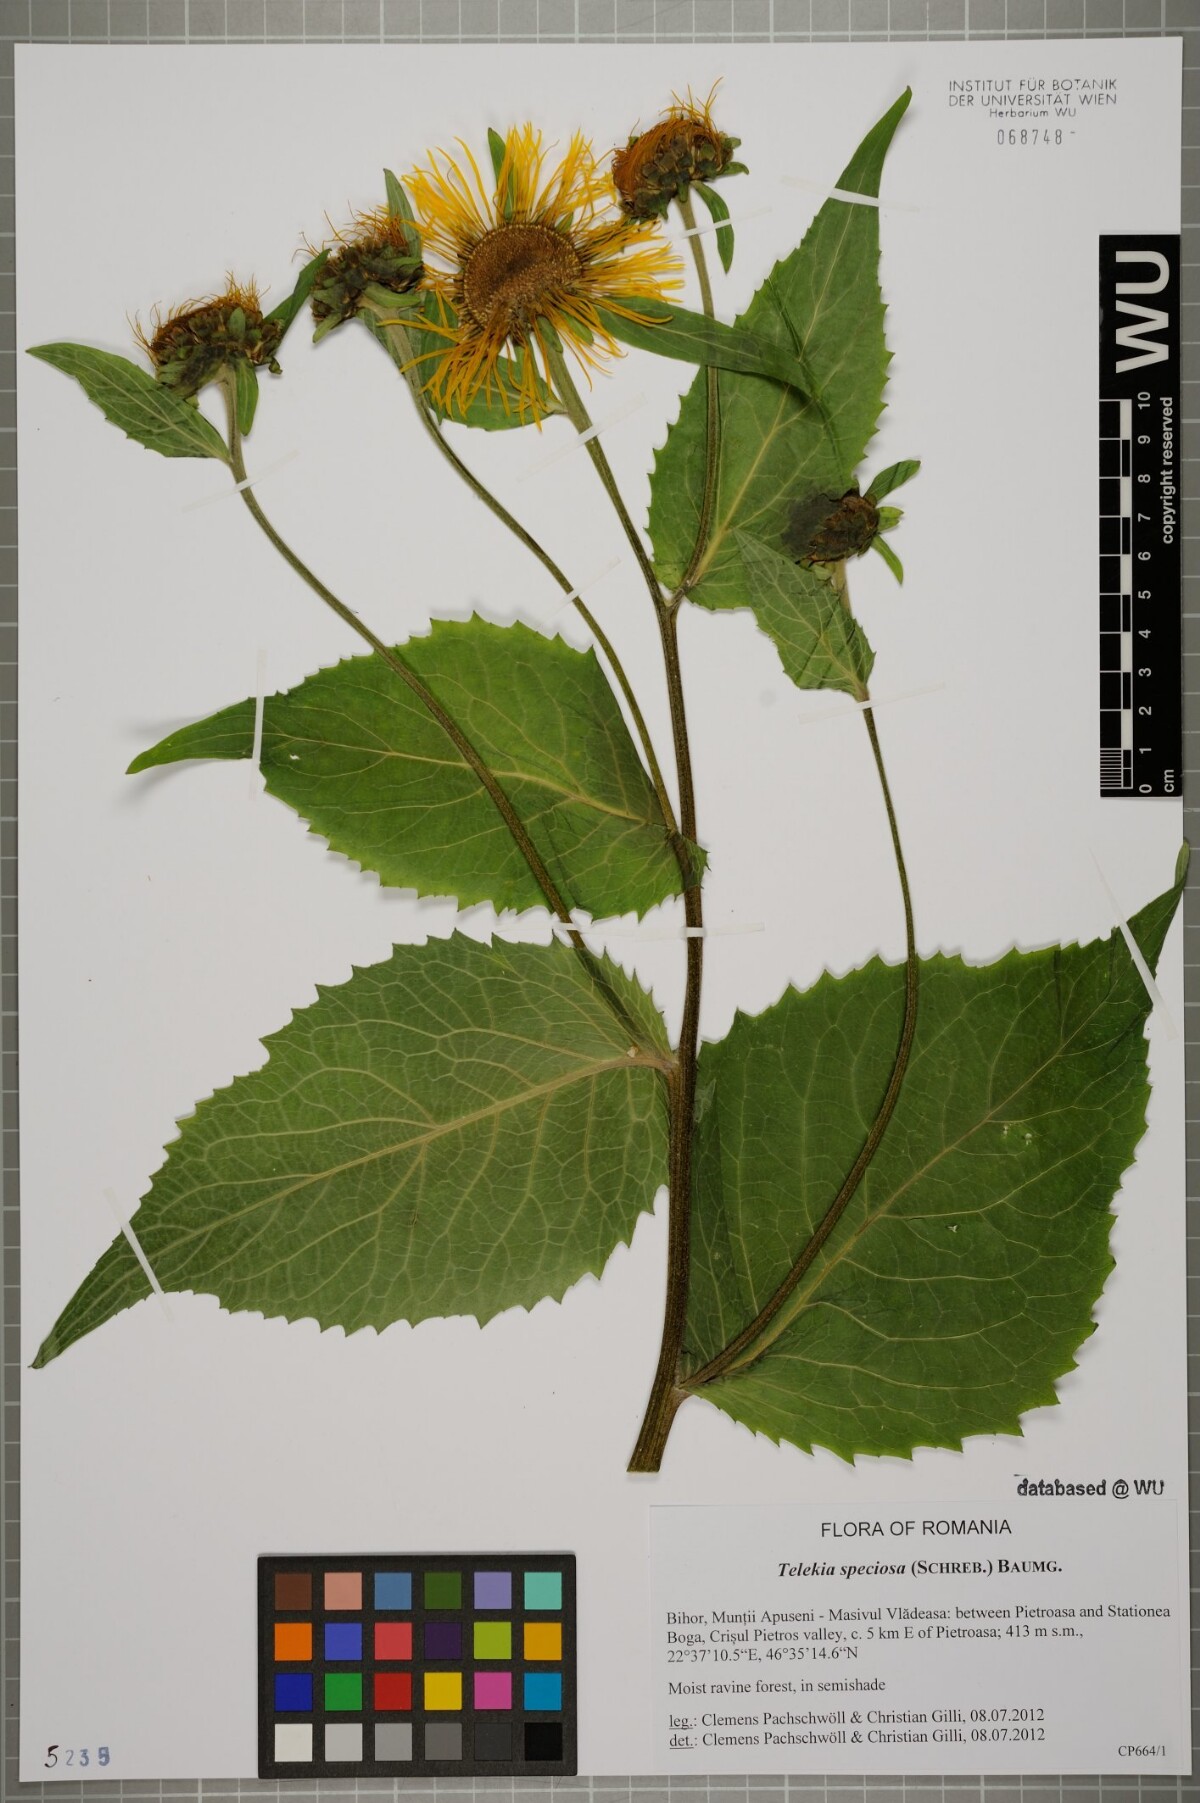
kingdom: Plantae
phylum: Tracheophyta
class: Magnoliopsida
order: Asterales
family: Asteraceae
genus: Telekia
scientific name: Telekia speciosa
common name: Yellow oxeye
